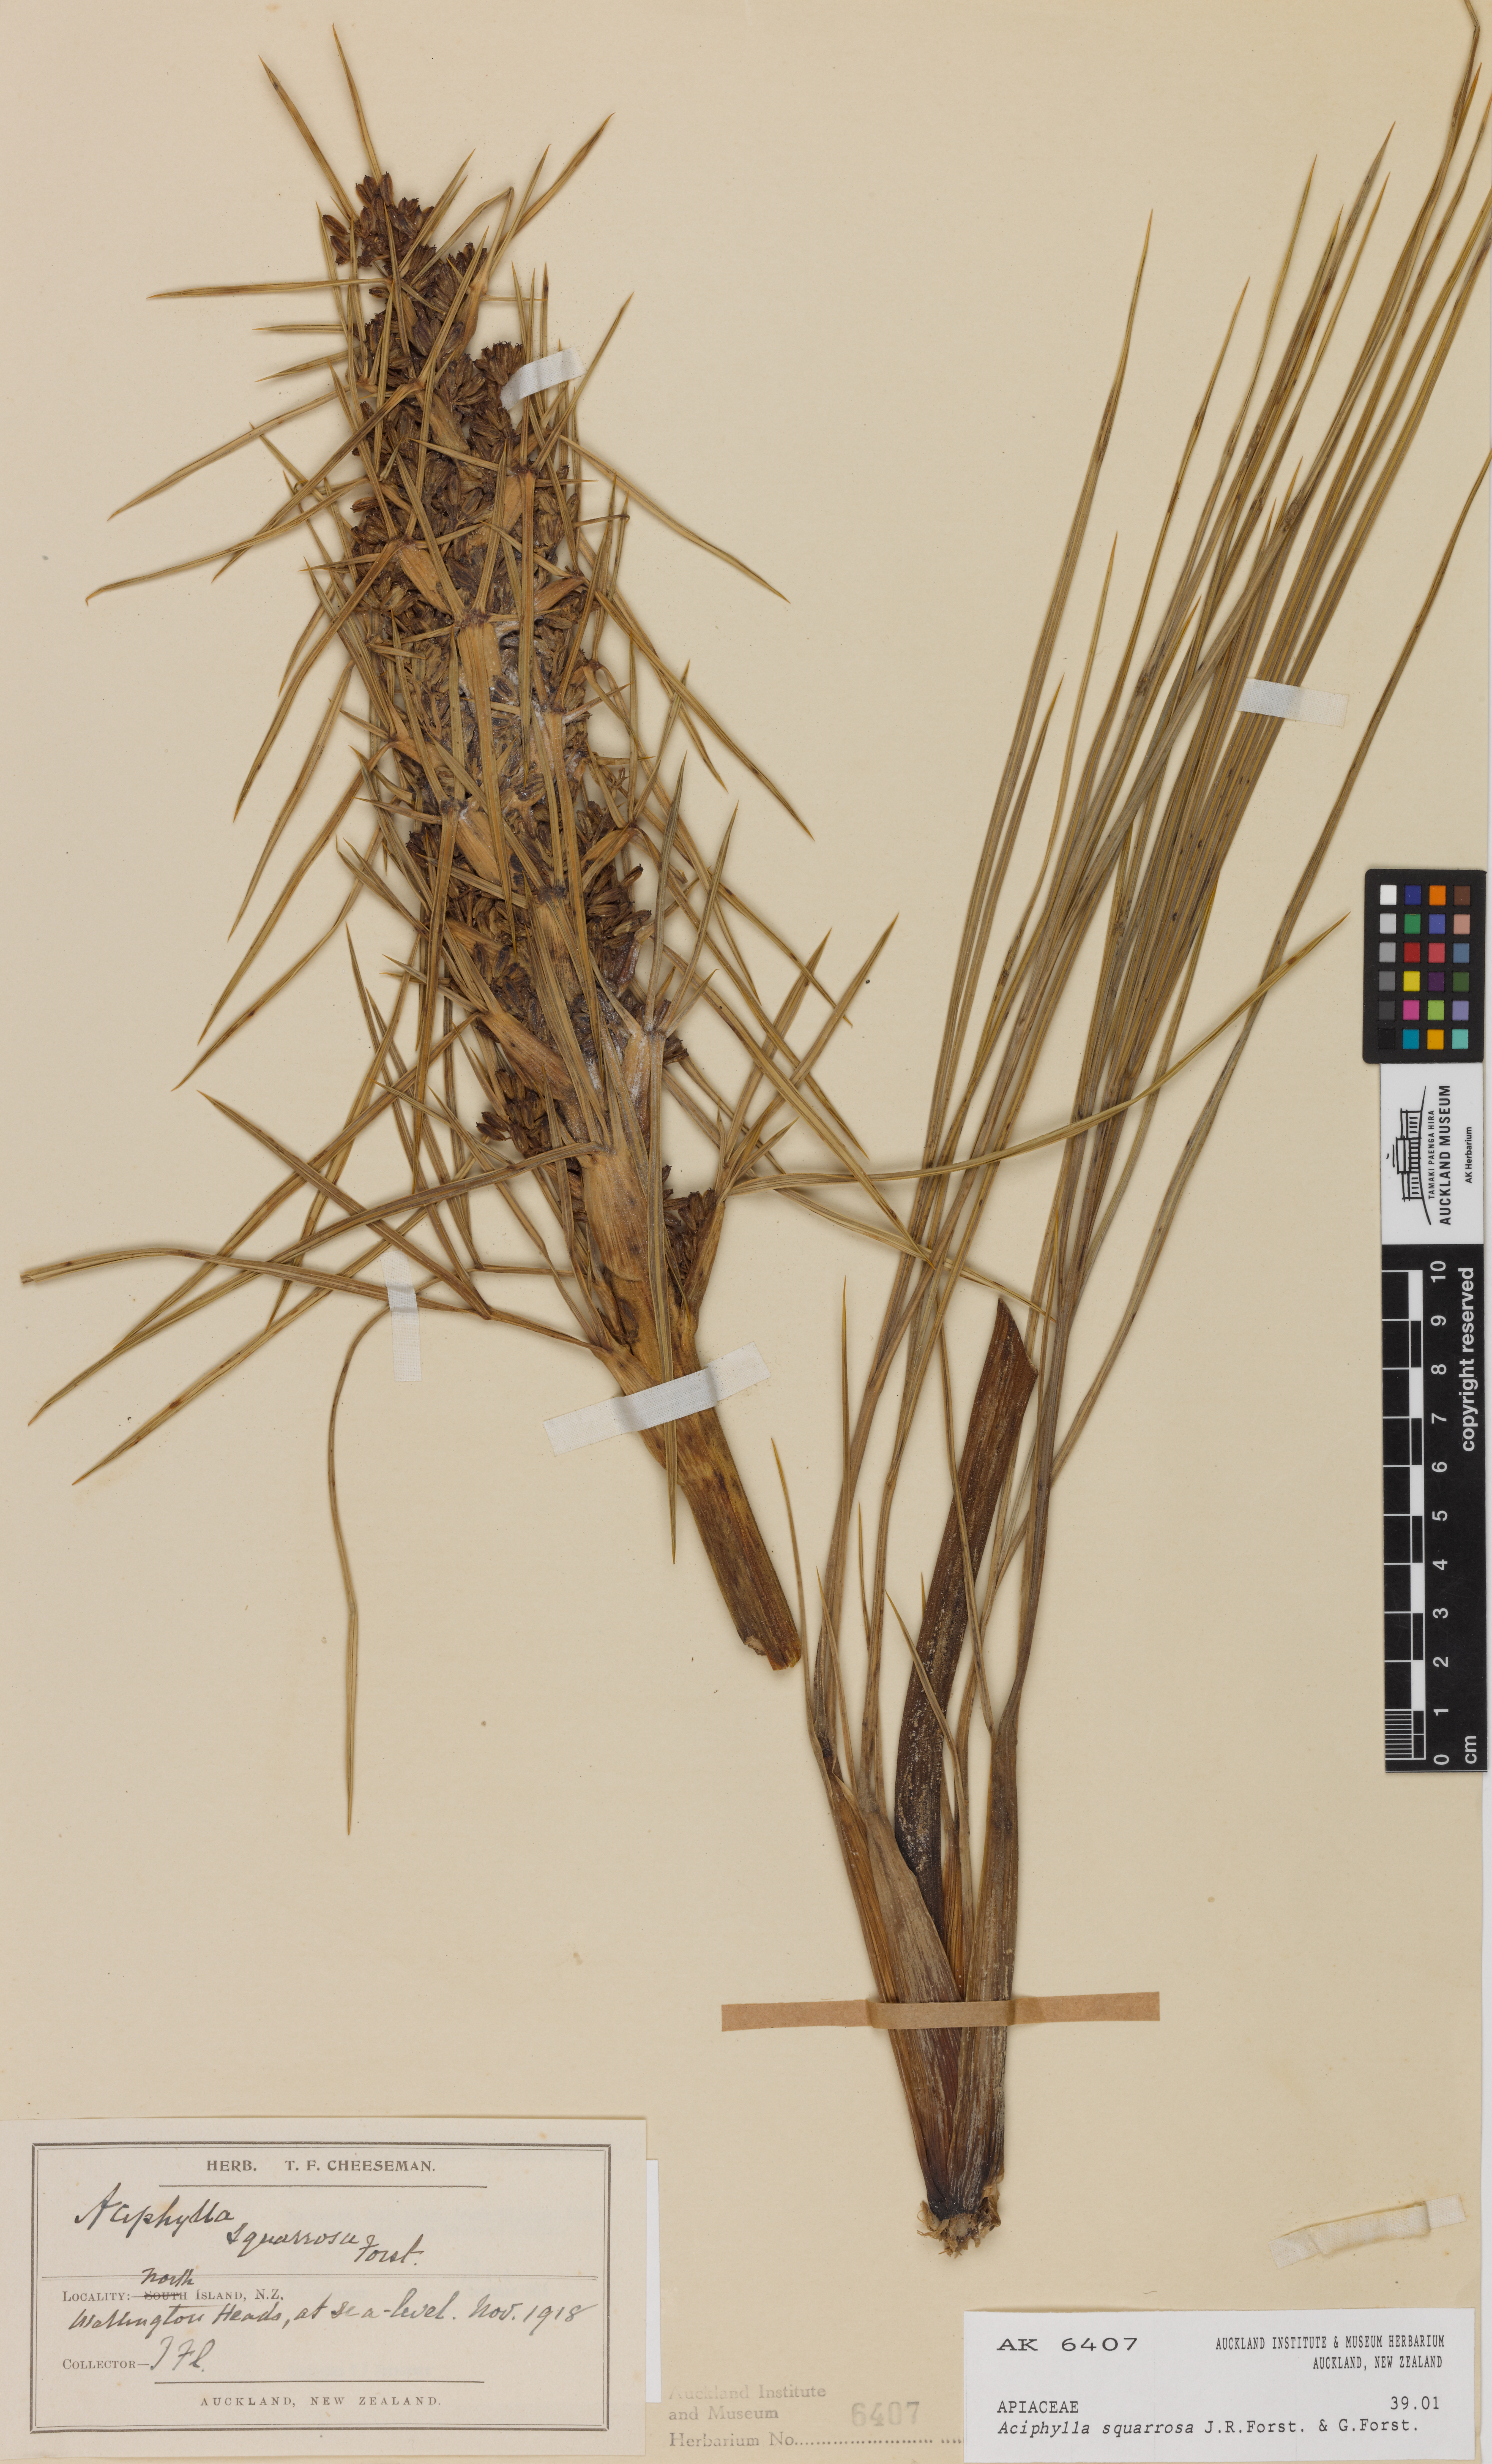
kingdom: Plantae
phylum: Tracheophyta
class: Magnoliopsida
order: Apiales
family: Apiaceae
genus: Aciphylla
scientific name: Aciphylla squarrosa
